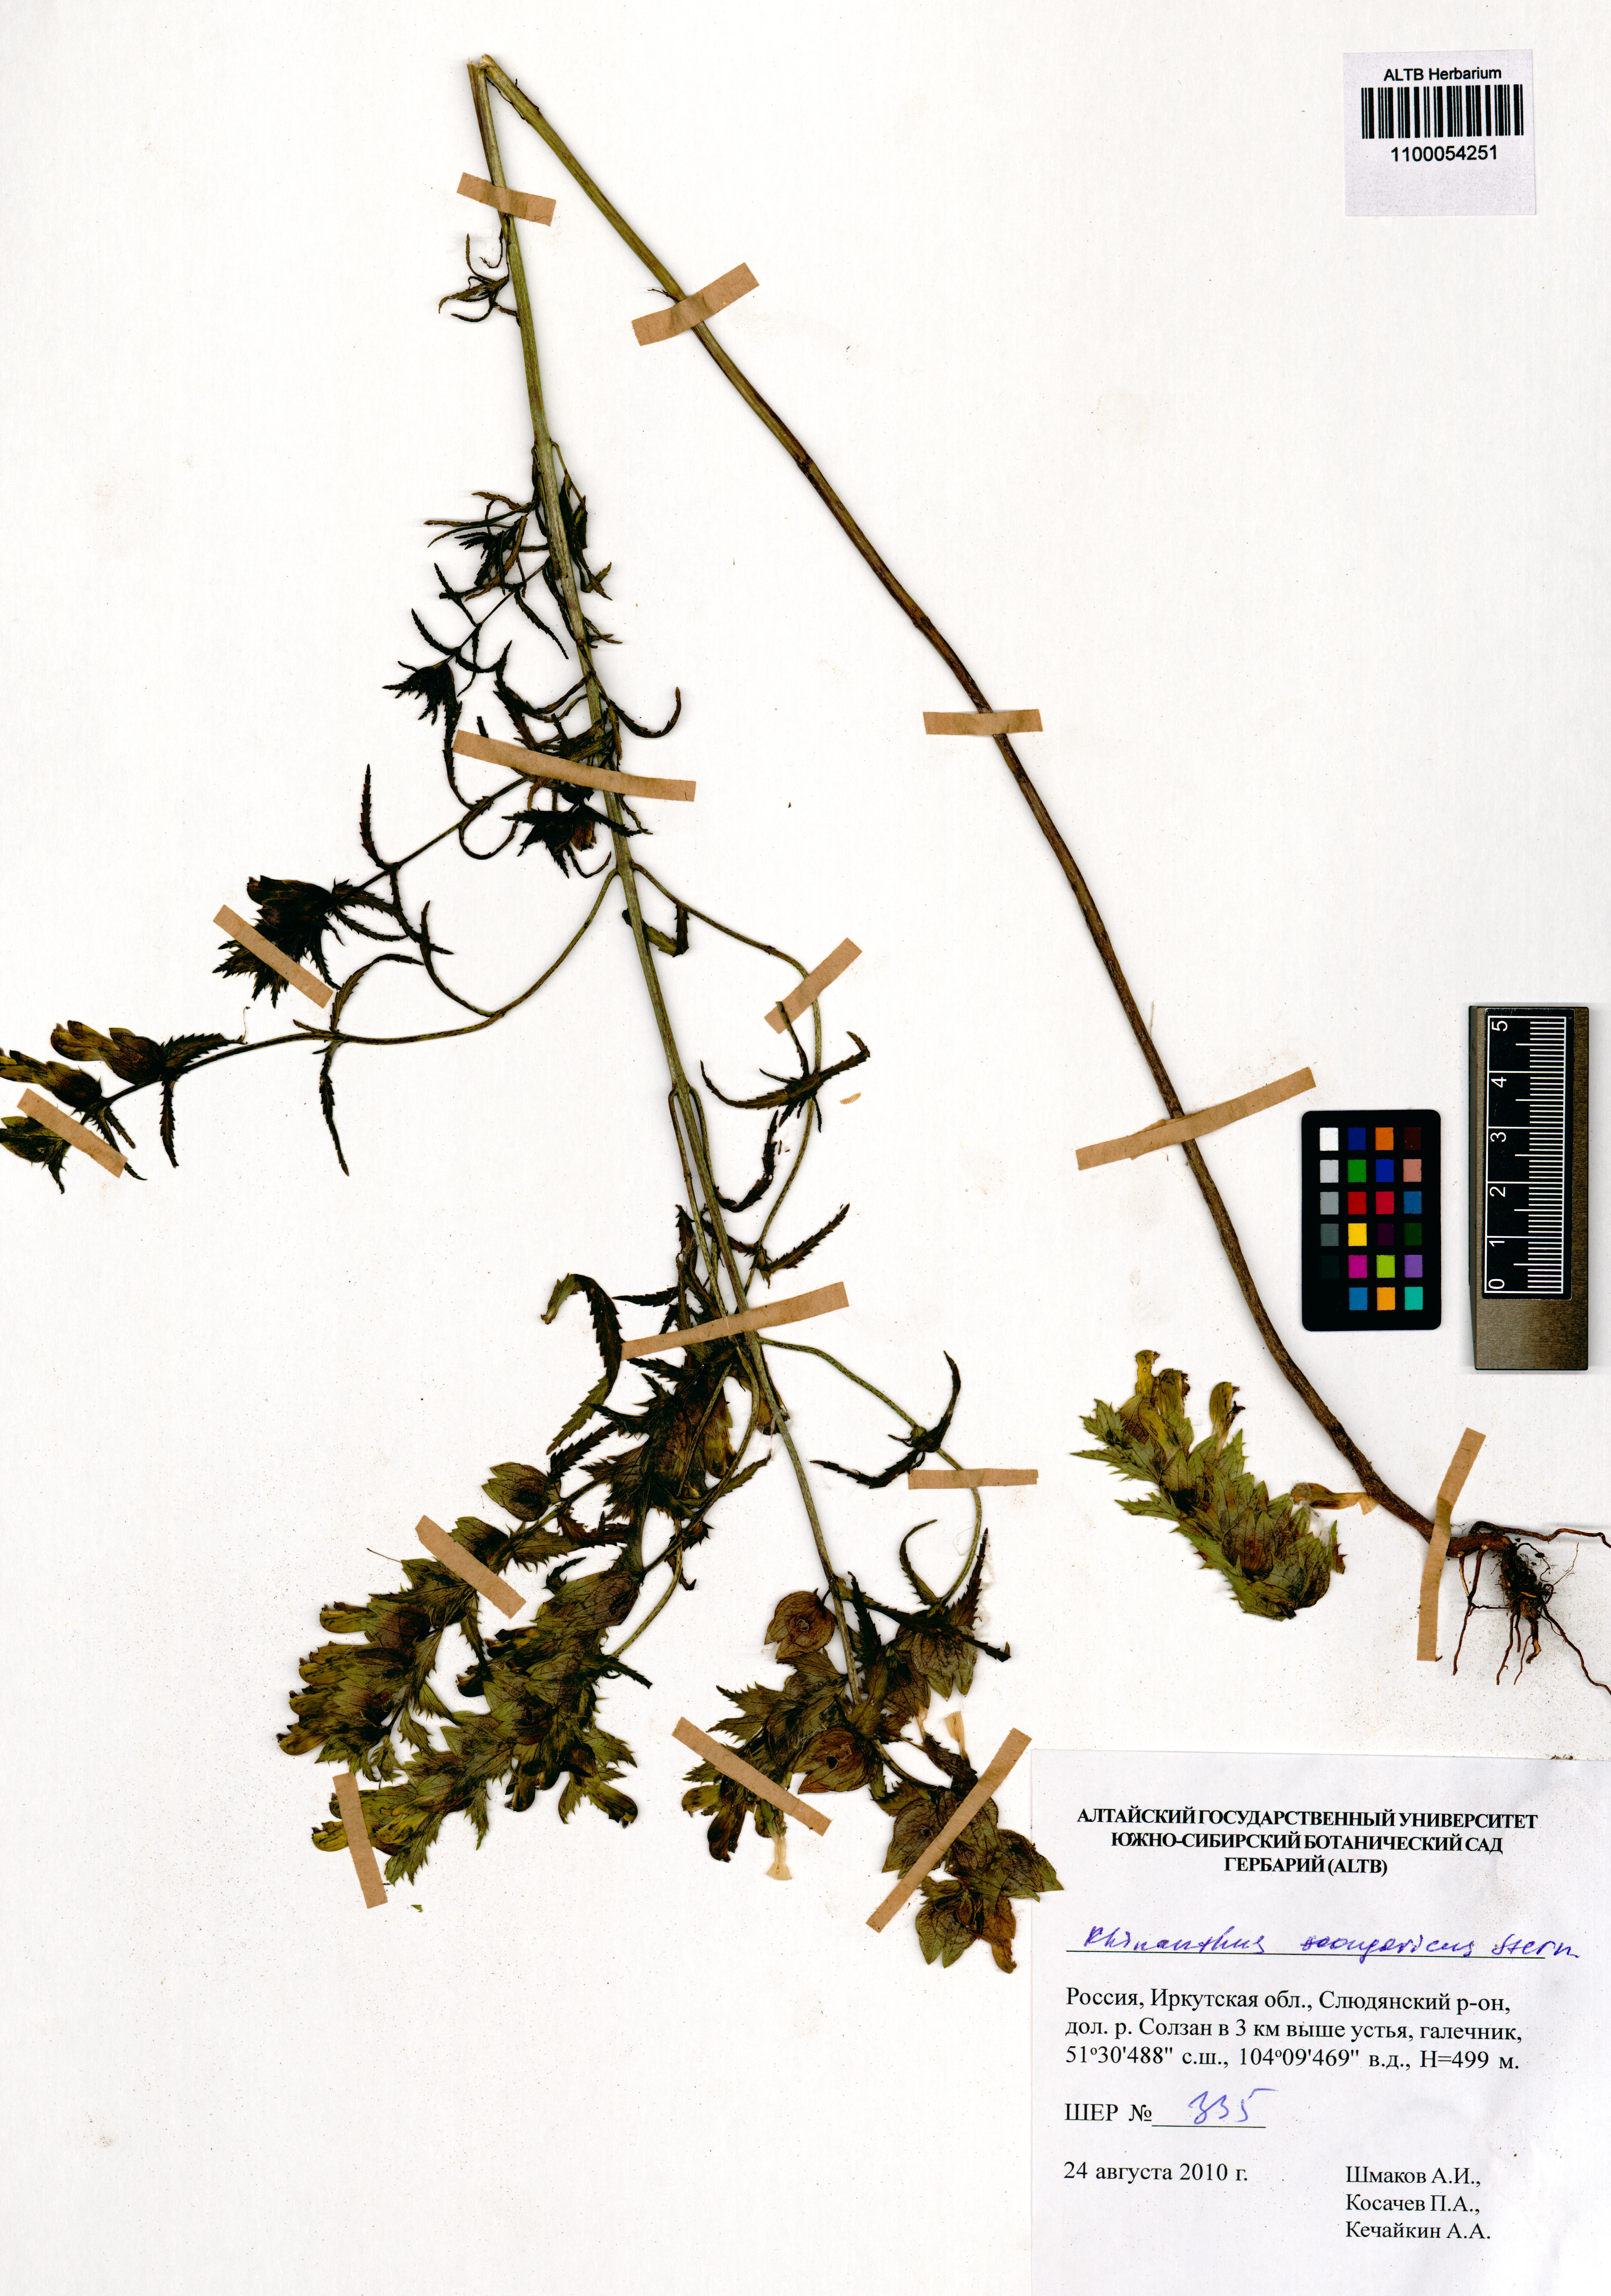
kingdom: Plantae
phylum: Tracheophyta
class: Magnoliopsida
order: Lamiales
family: Orobanchaceae
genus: Rhinanthus
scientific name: Rhinanthus songaricus
